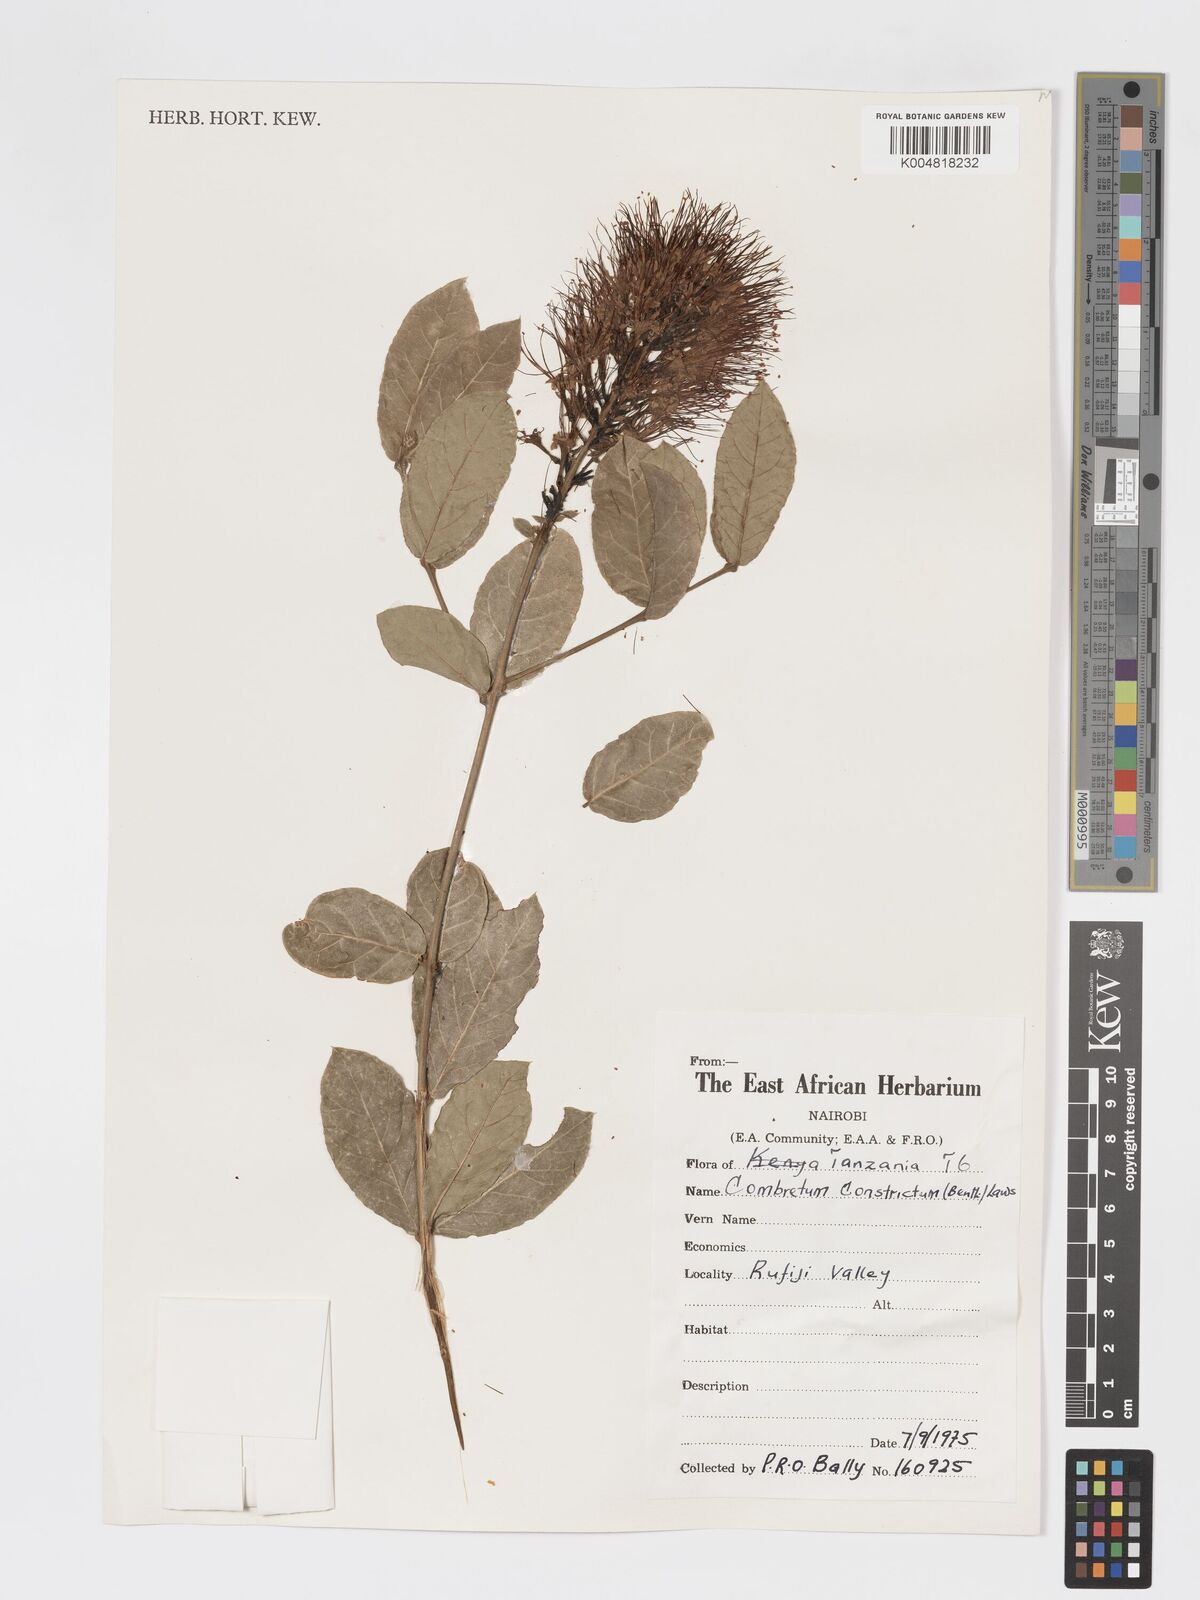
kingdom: Plantae
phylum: Tracheophyta
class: Magnoliopsida
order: Myrtales
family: Combretaceae
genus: Combretum
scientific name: Combretum constrictum
